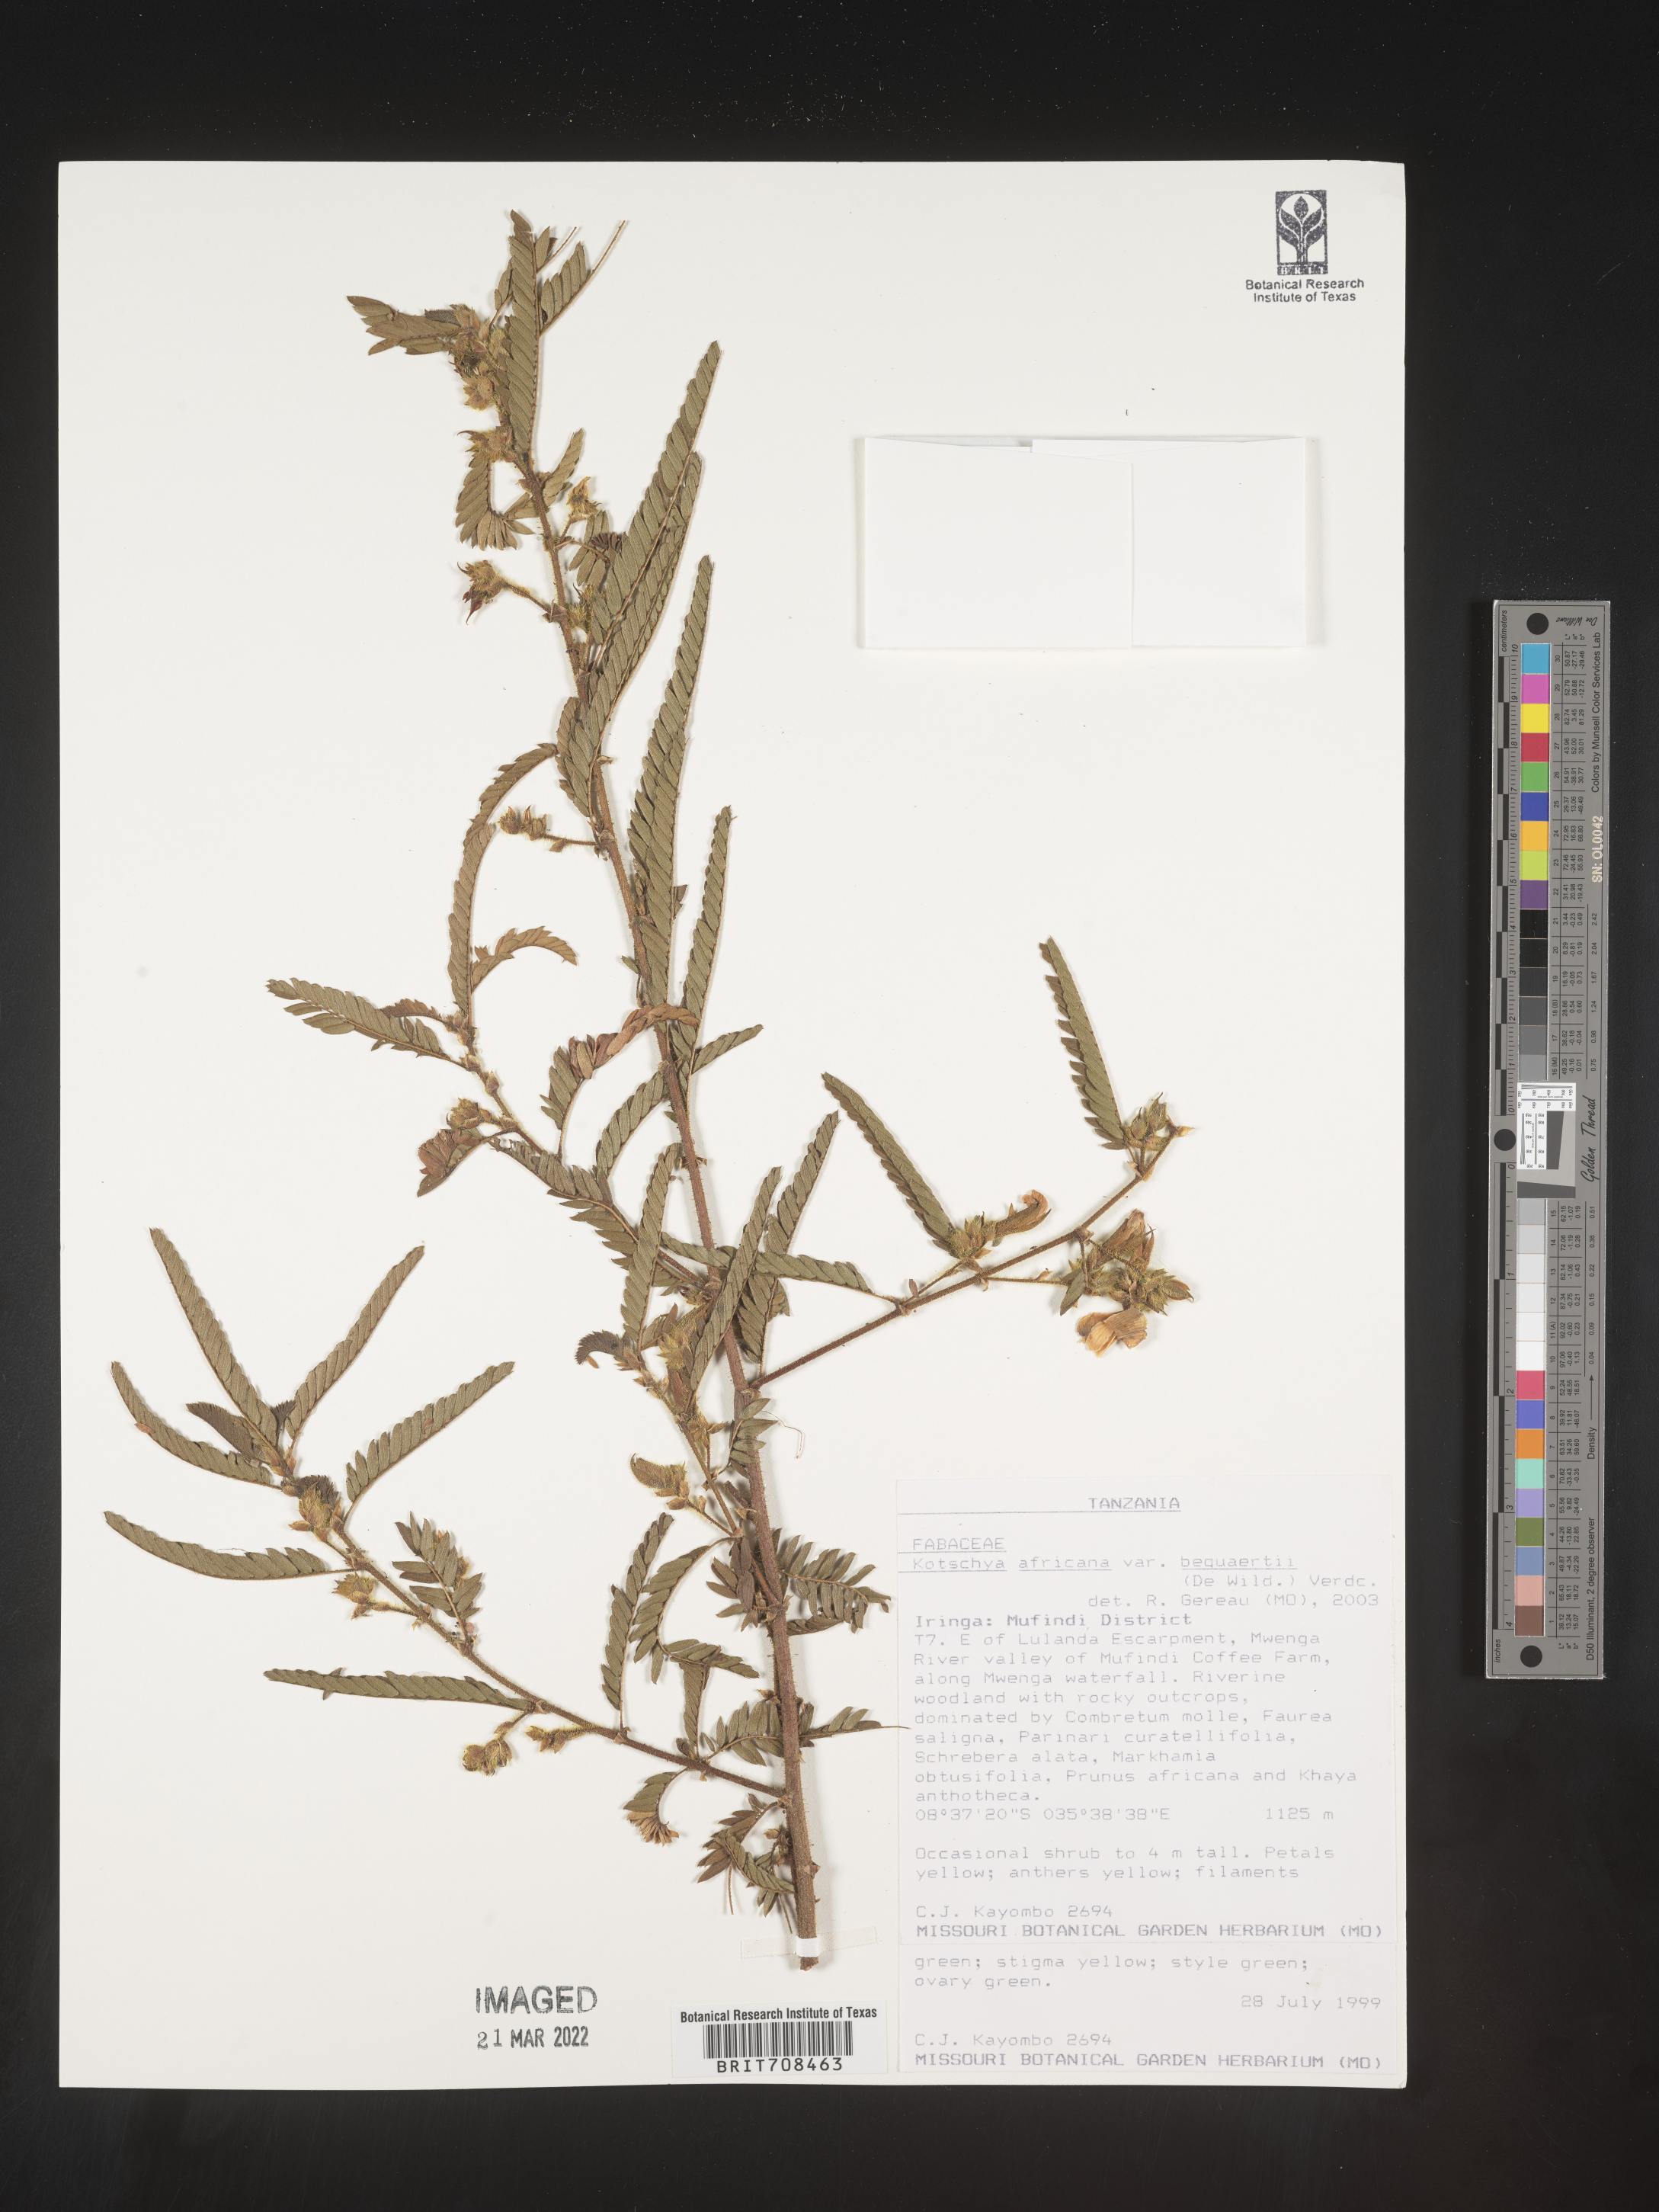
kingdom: Plantae
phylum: Tracheophyta
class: Magnoliopsida
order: Fabales
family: Fabaceae
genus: Kotschya
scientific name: Kotschya
